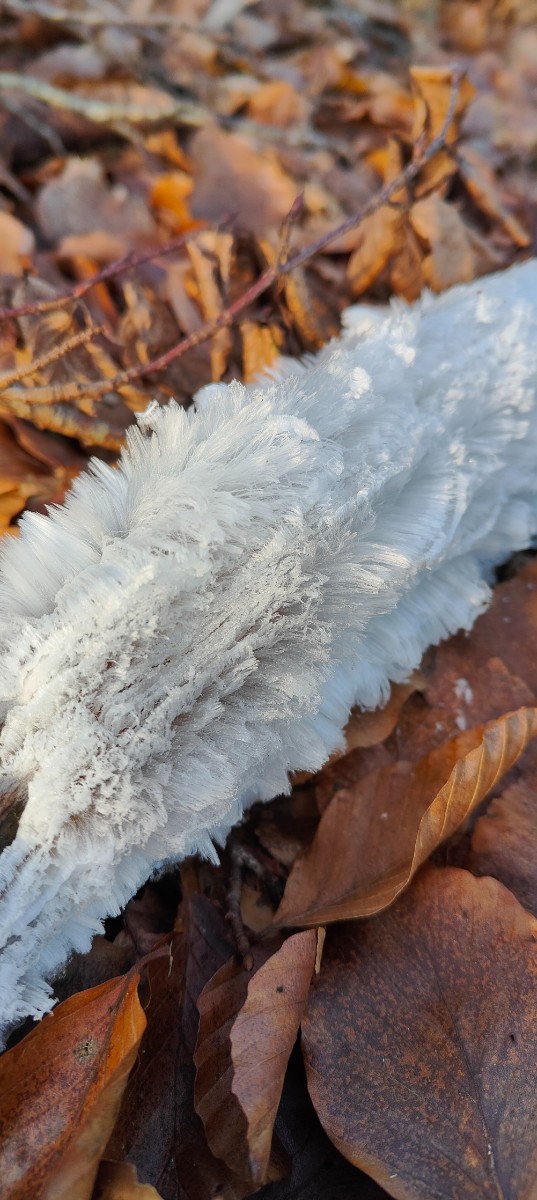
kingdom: Fungi
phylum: Basidiomycota
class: Tremellomycetes
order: Tremellales
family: Exidiaceae
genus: Exidiopsis
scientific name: Exidiopsis effusa
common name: smuk bævrehinde
